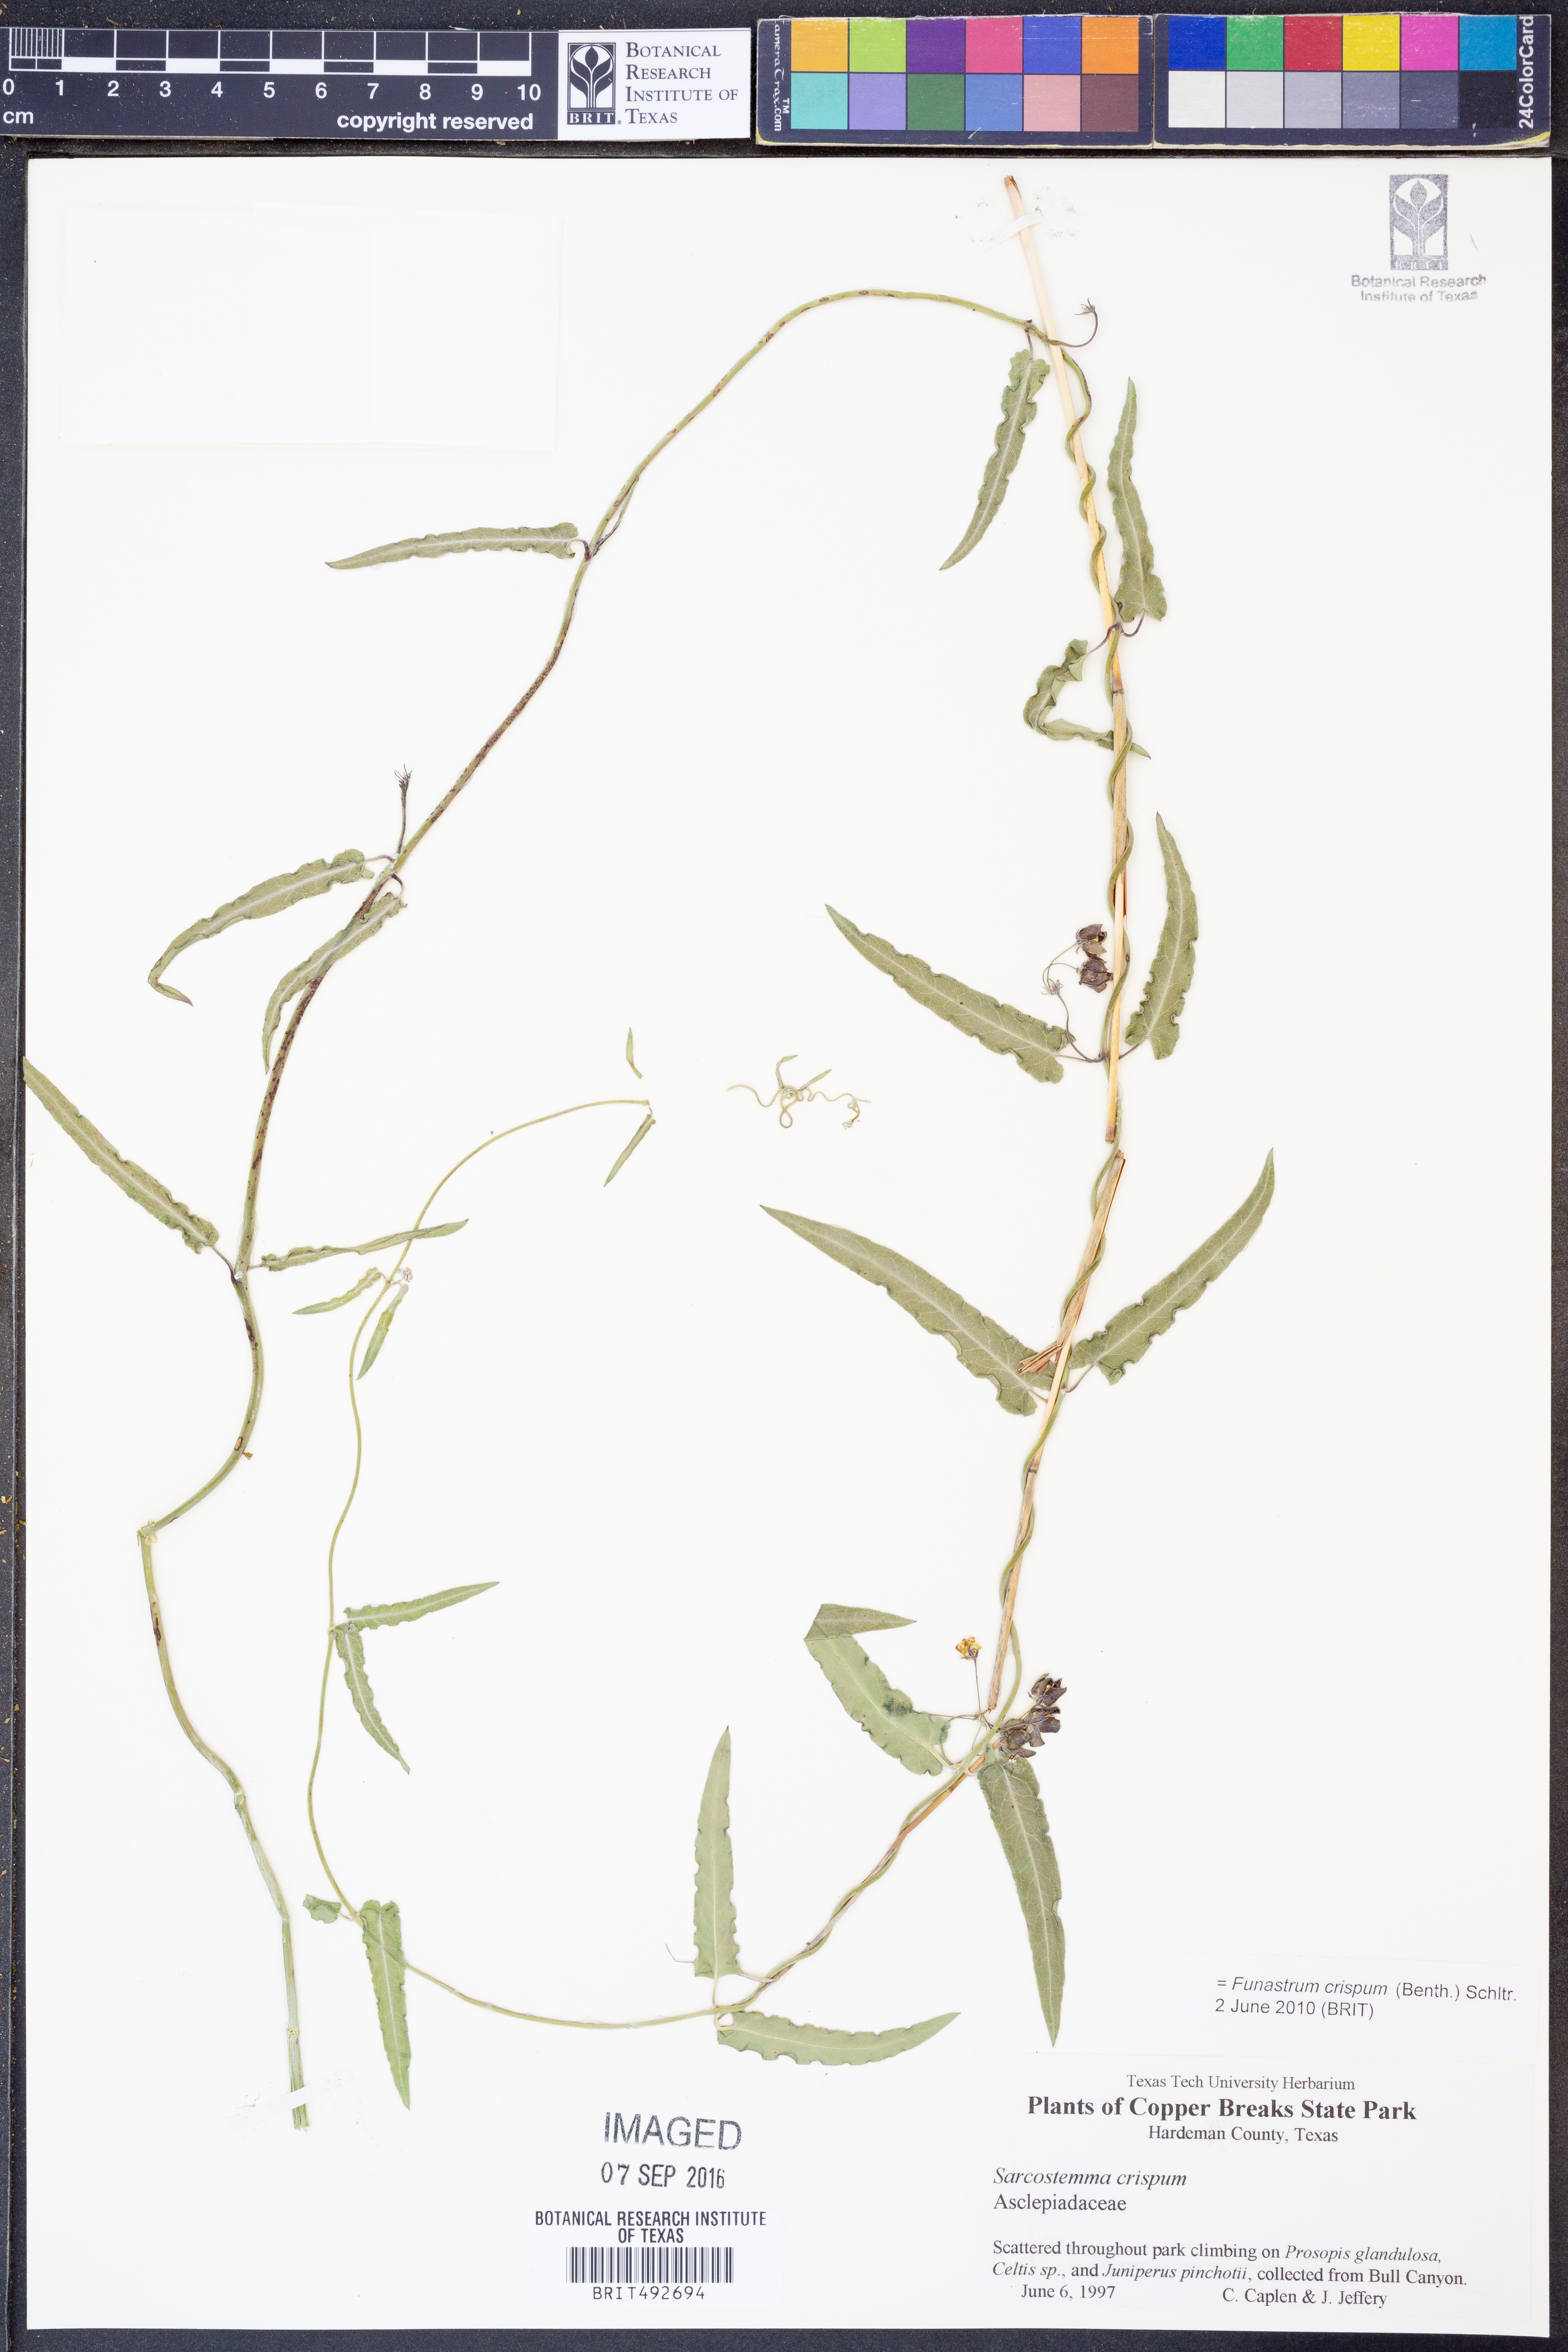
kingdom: Plantae
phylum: Tracheophyta
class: Magnoliopsida
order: Gentianales
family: Apocynaceae
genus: Funastrum
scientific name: Funastrum crispum
